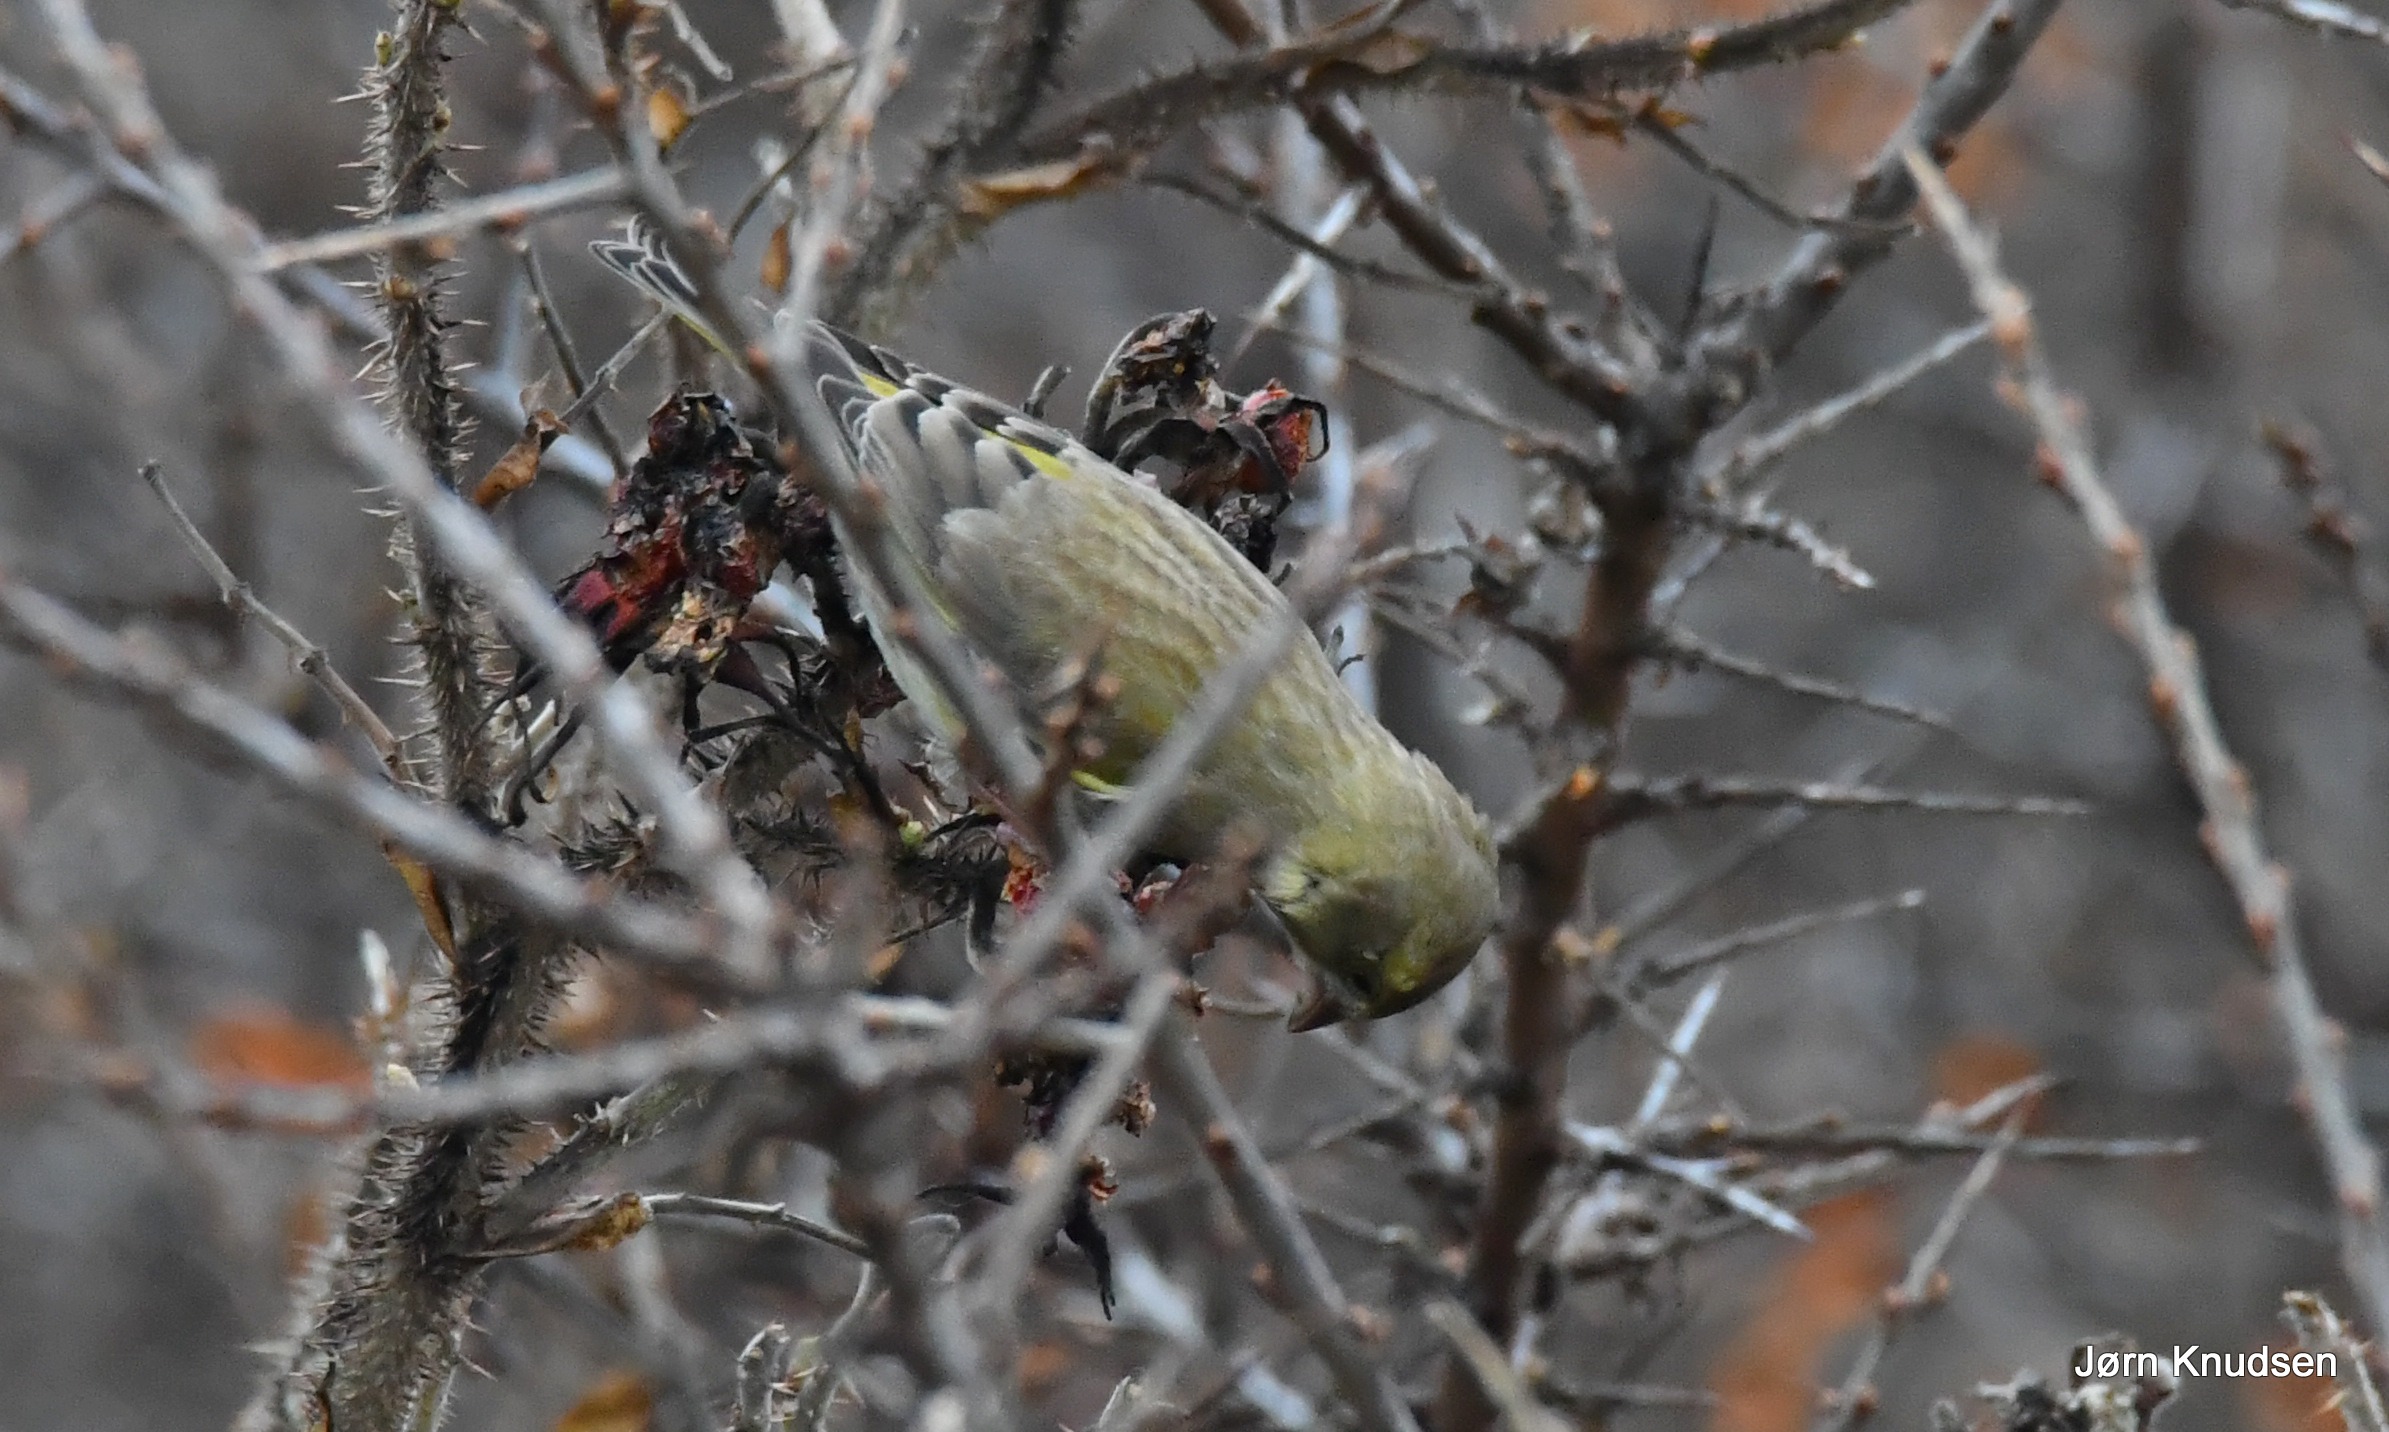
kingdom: Plantae
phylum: Tracheophyta
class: Liliopsida
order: Poales
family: Poaceae
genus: Chloris
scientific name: Chloris chloris
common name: Grønirisk
